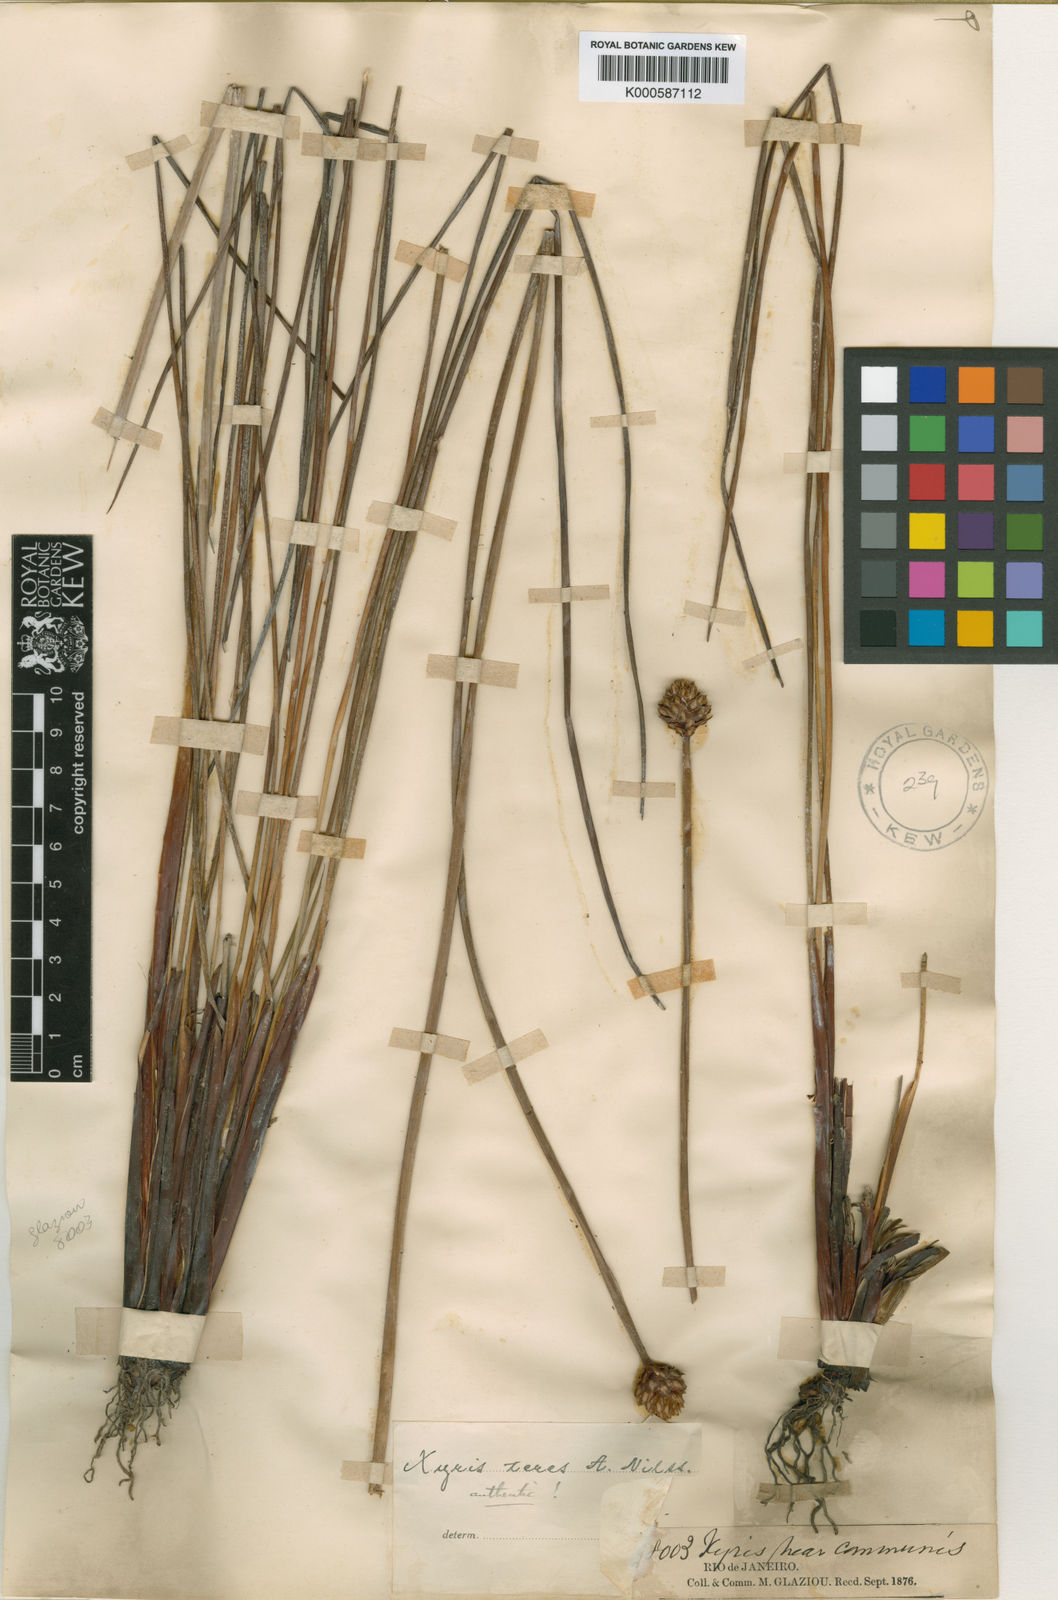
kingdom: Plantae
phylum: Tracheophyta
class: Liliopsida
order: Poales
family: Xyridaceae
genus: Xyris
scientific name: Xyris teres
